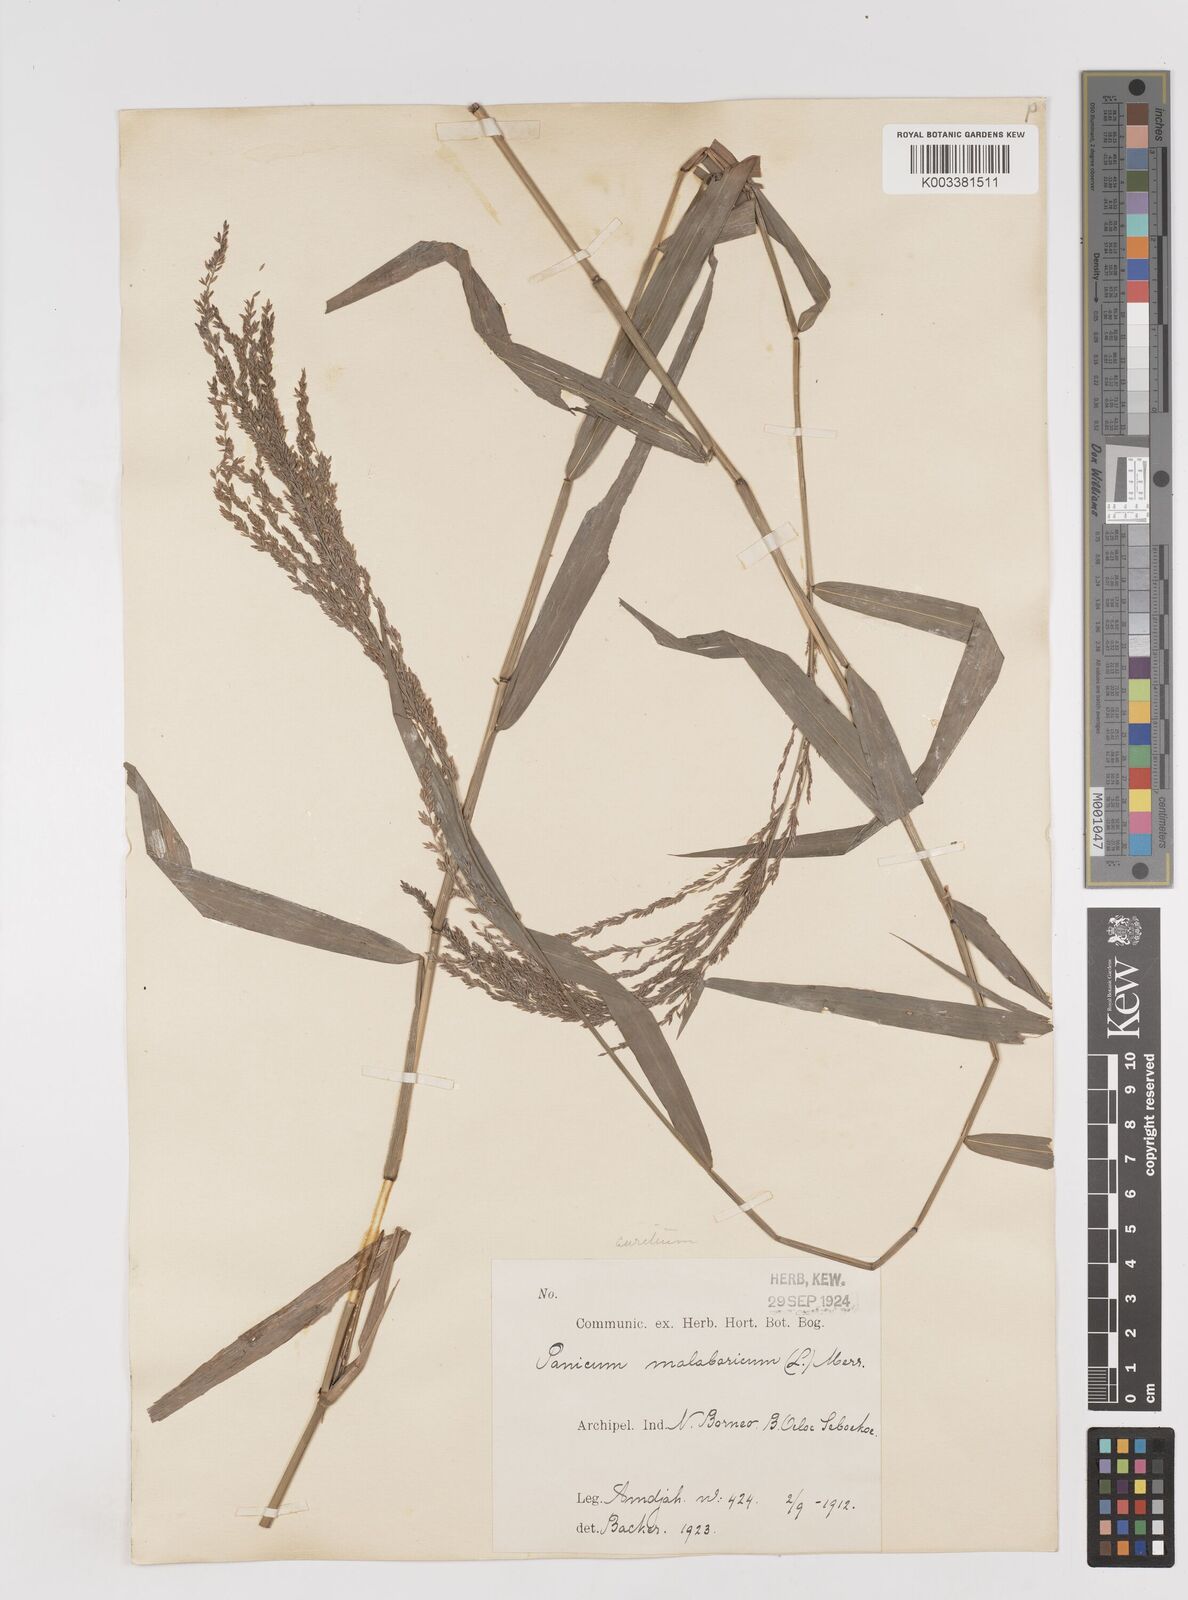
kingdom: Plantae
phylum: Tracheophyta
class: Liliopsida
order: Poales
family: Poaceae
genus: Ottochloa
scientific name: Ottochloa nodosa
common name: Slender-panic grass
